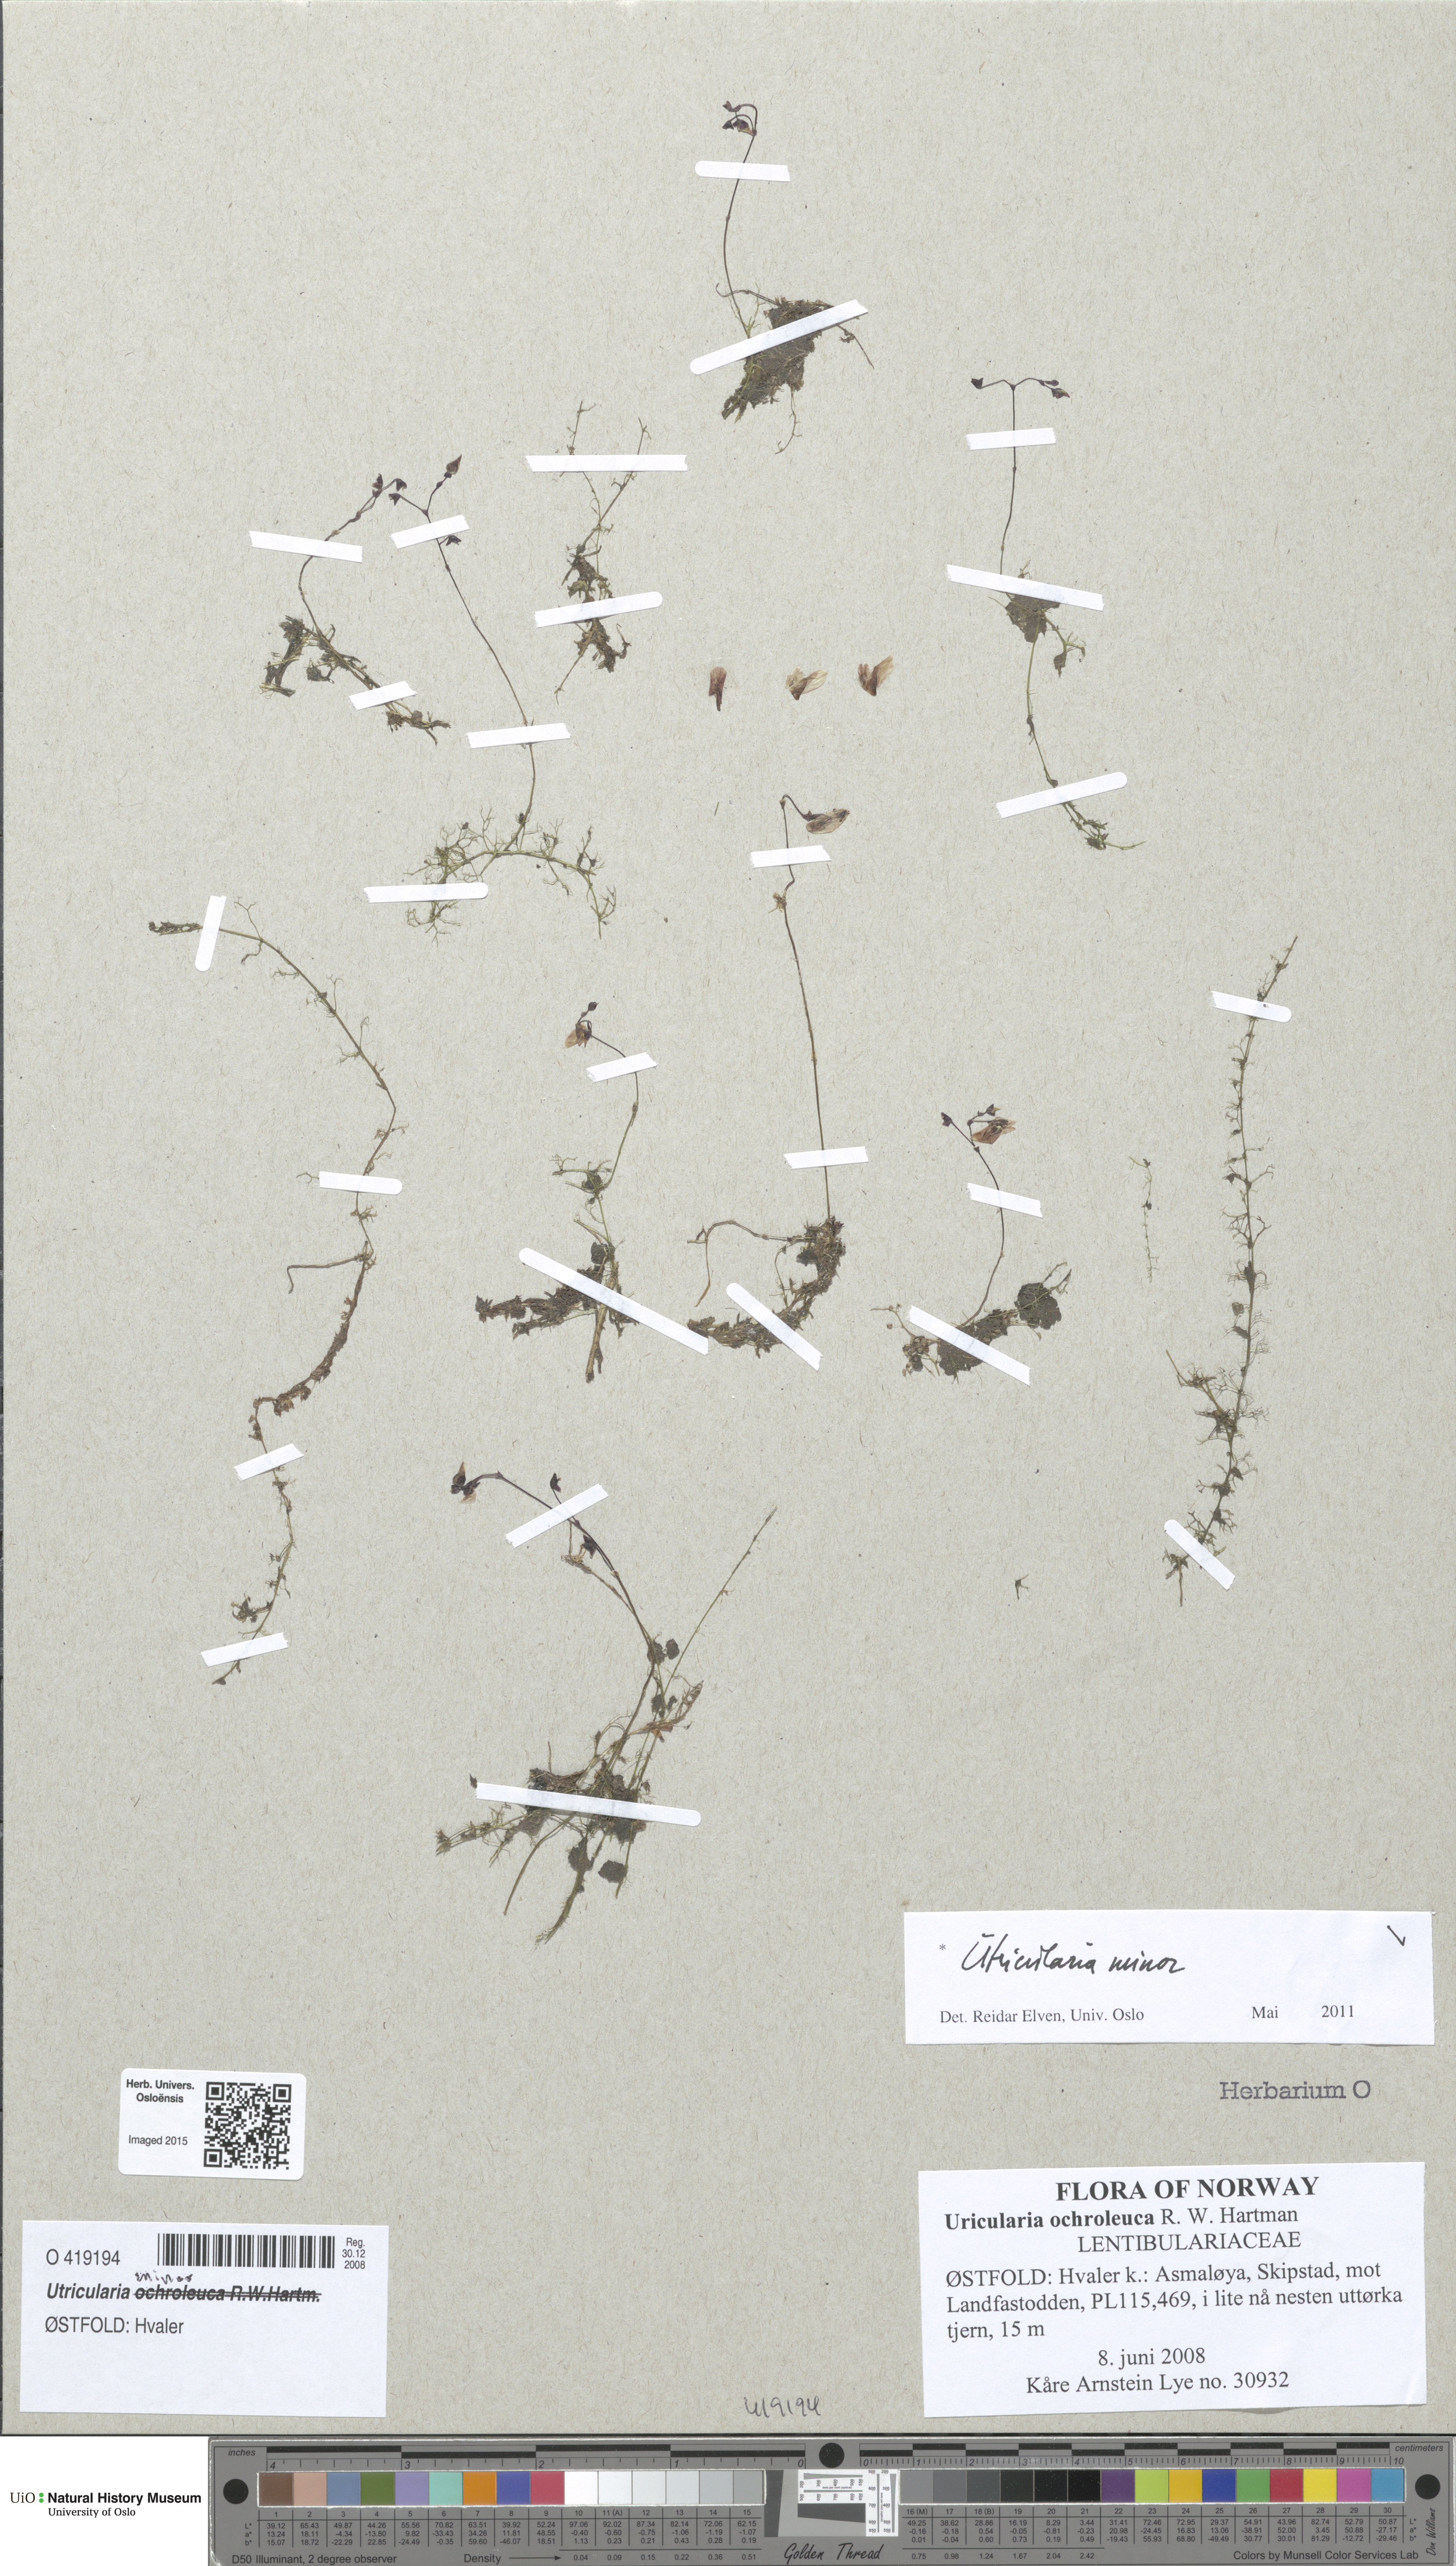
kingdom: Plantae
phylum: Tracheophyta
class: Magnoliopsida
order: Lamiales
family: Lentibulariaceae
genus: Utricularia
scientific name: Utricularia minor
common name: Lesser bladderwort
